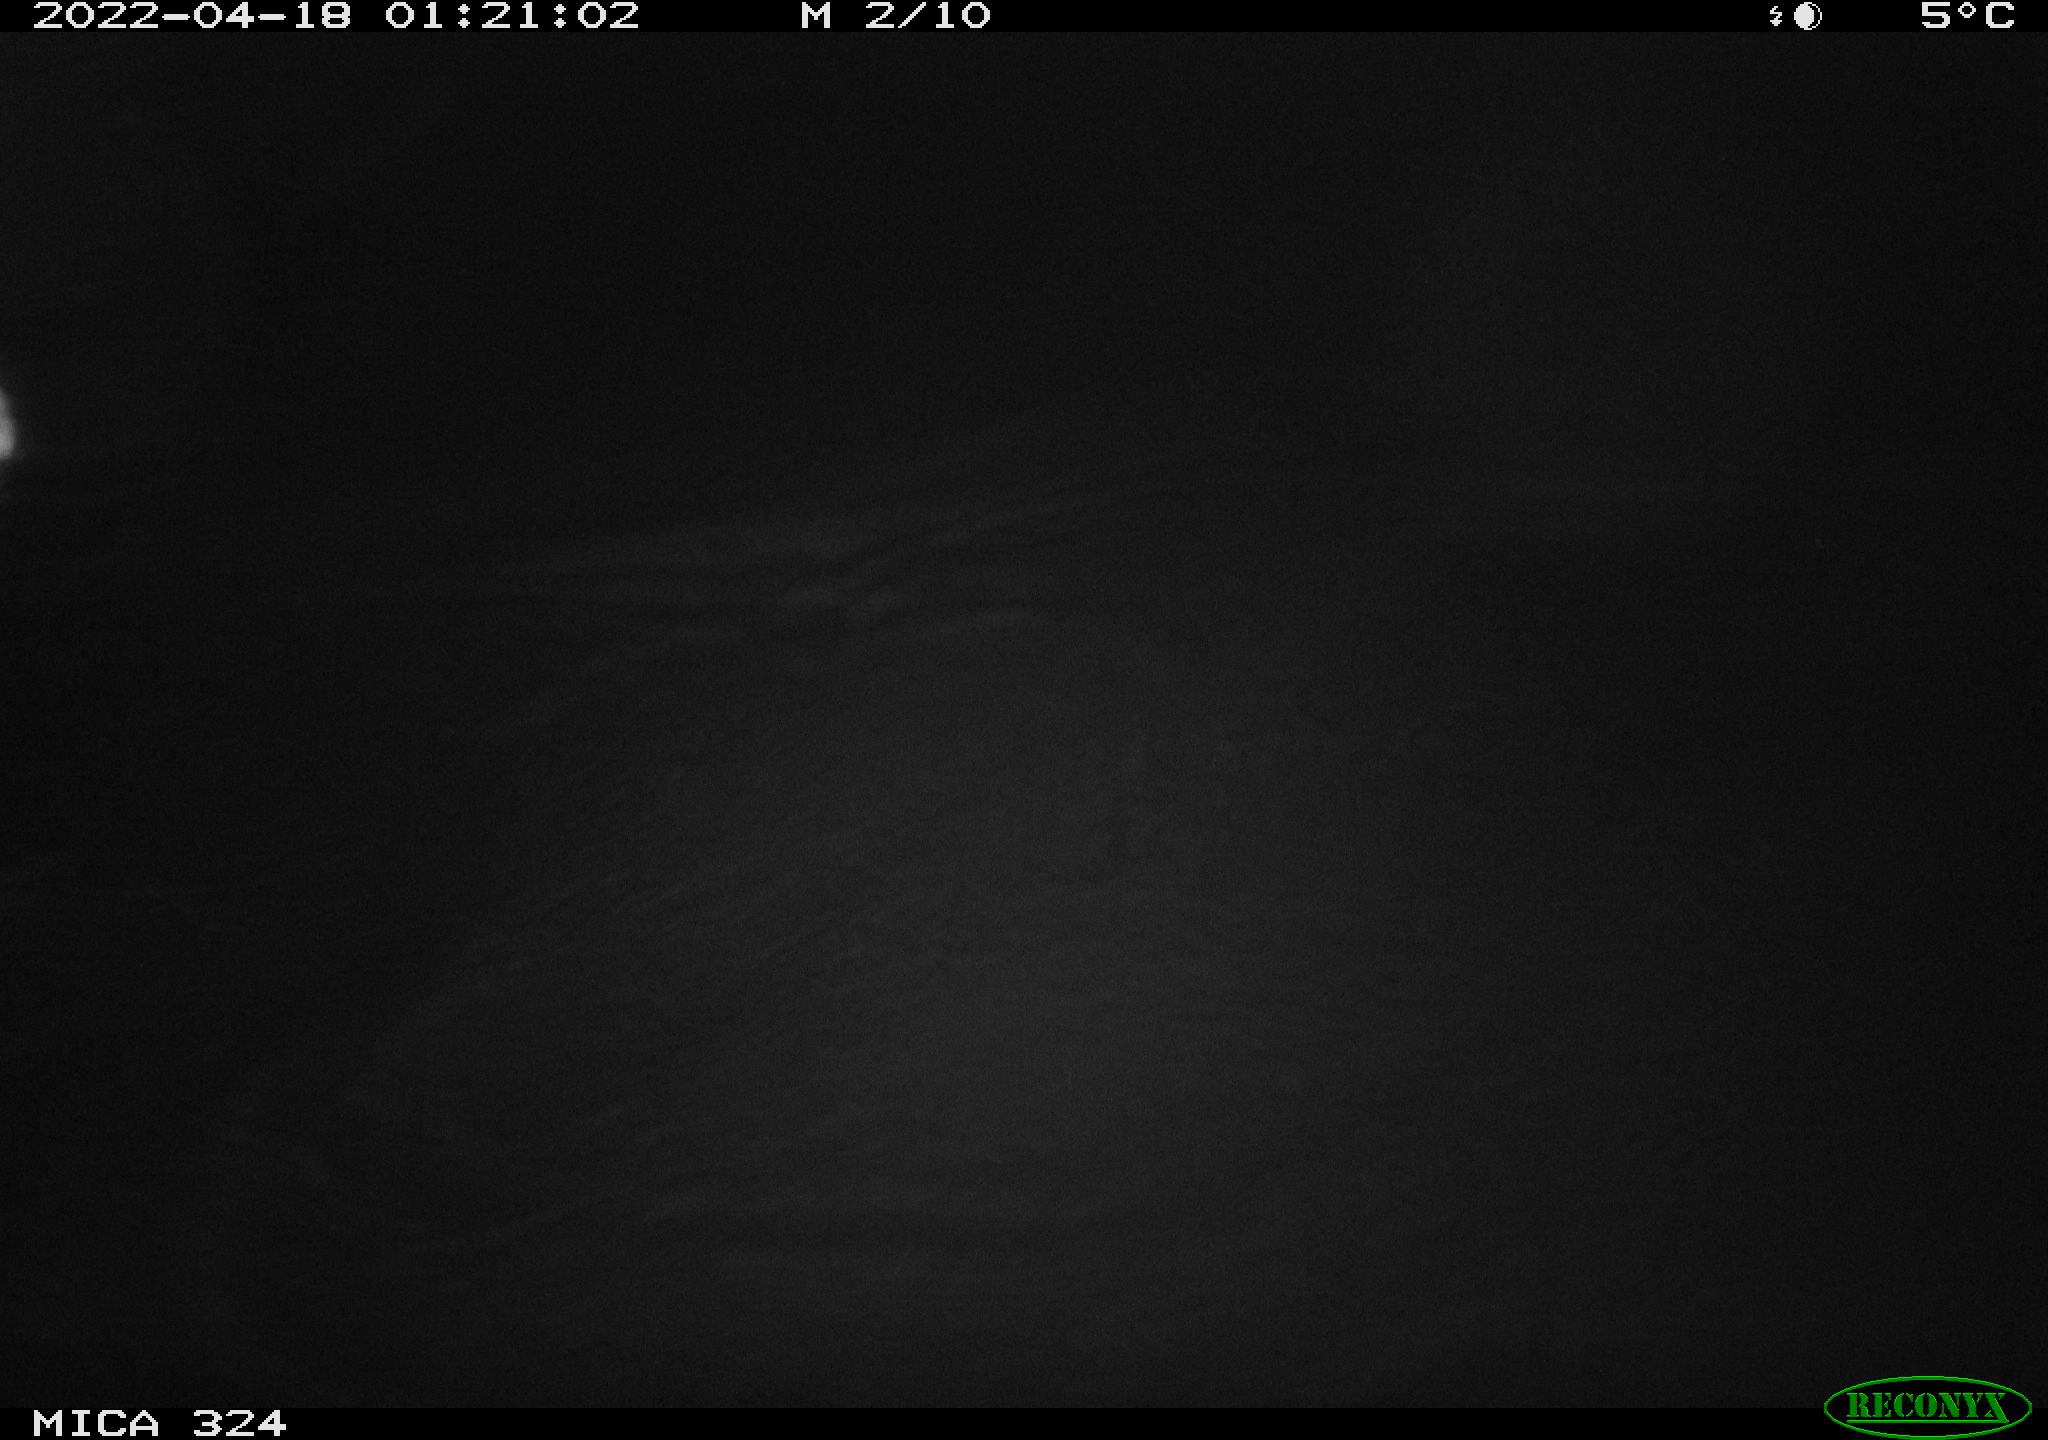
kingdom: Animalia
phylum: Chordata
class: Mammalia
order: Rodentia
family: Cricetidae
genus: Ondatra
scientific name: Ondatra zibethicus
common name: Muskrat
